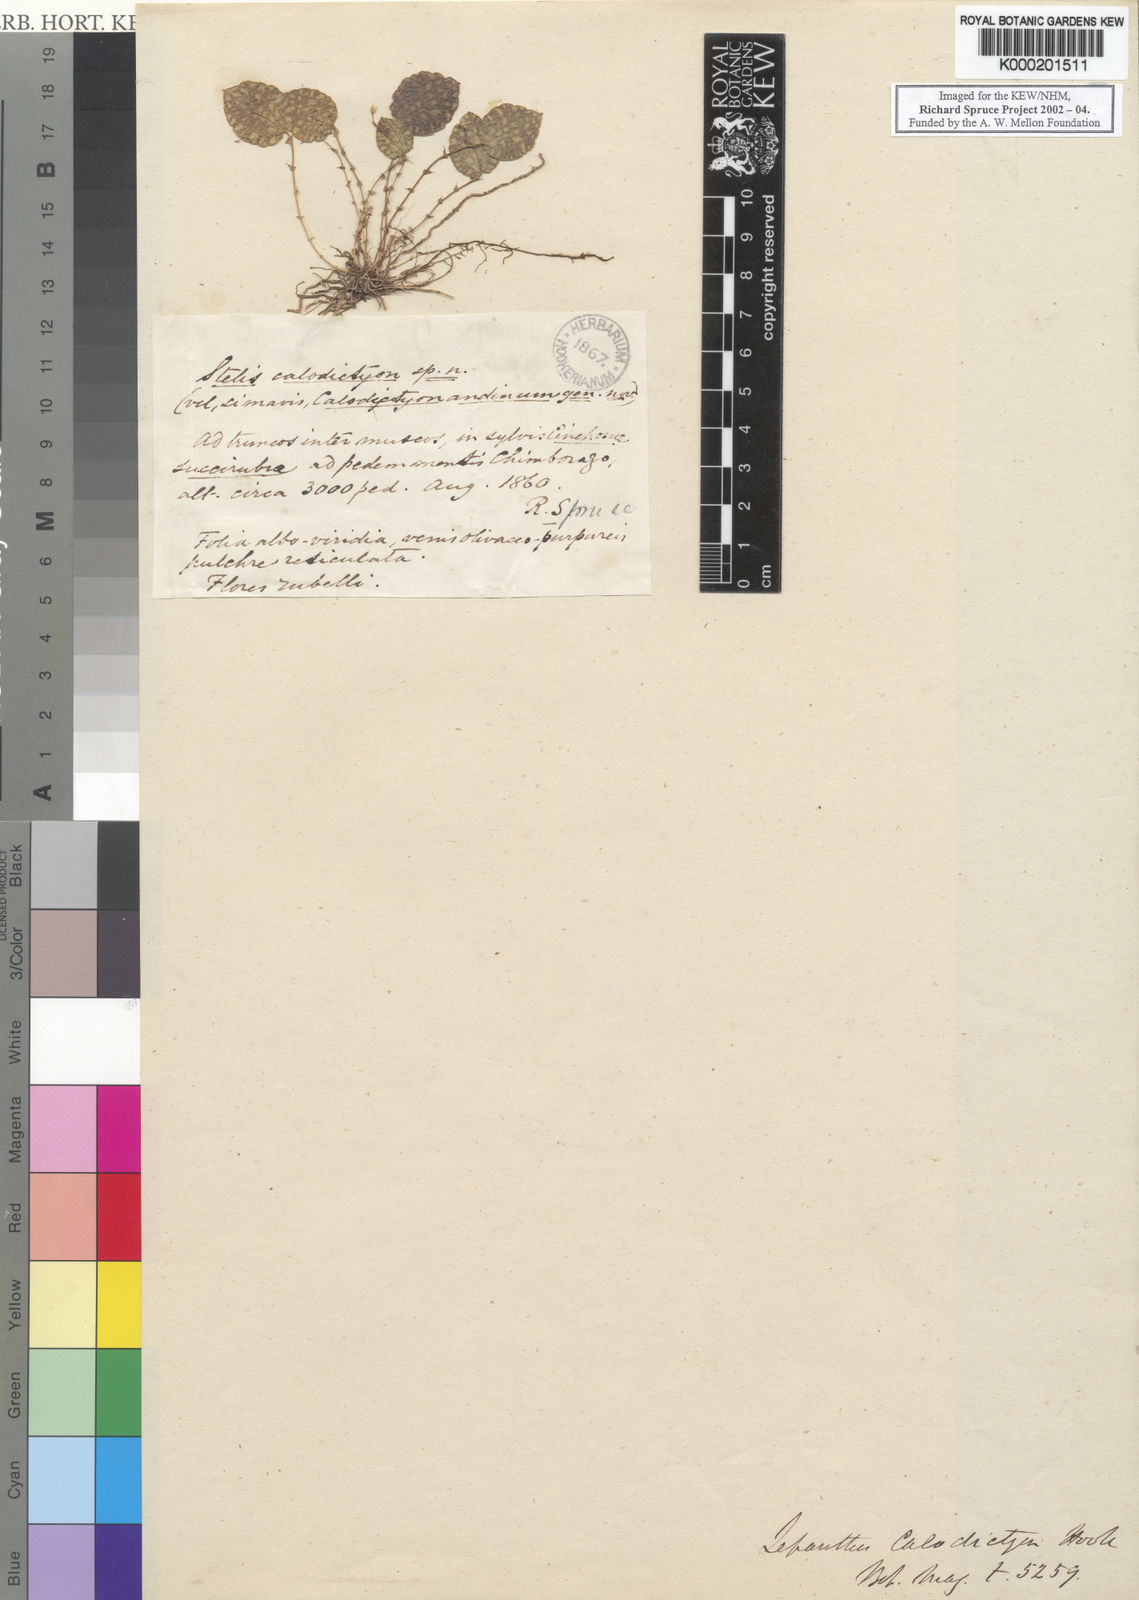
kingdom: Plantae
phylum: Tracheophyta
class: Liliopsida
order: Asparagales
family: Orchidaceae
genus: Lepanthes
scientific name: Lepanthes calodictyon
